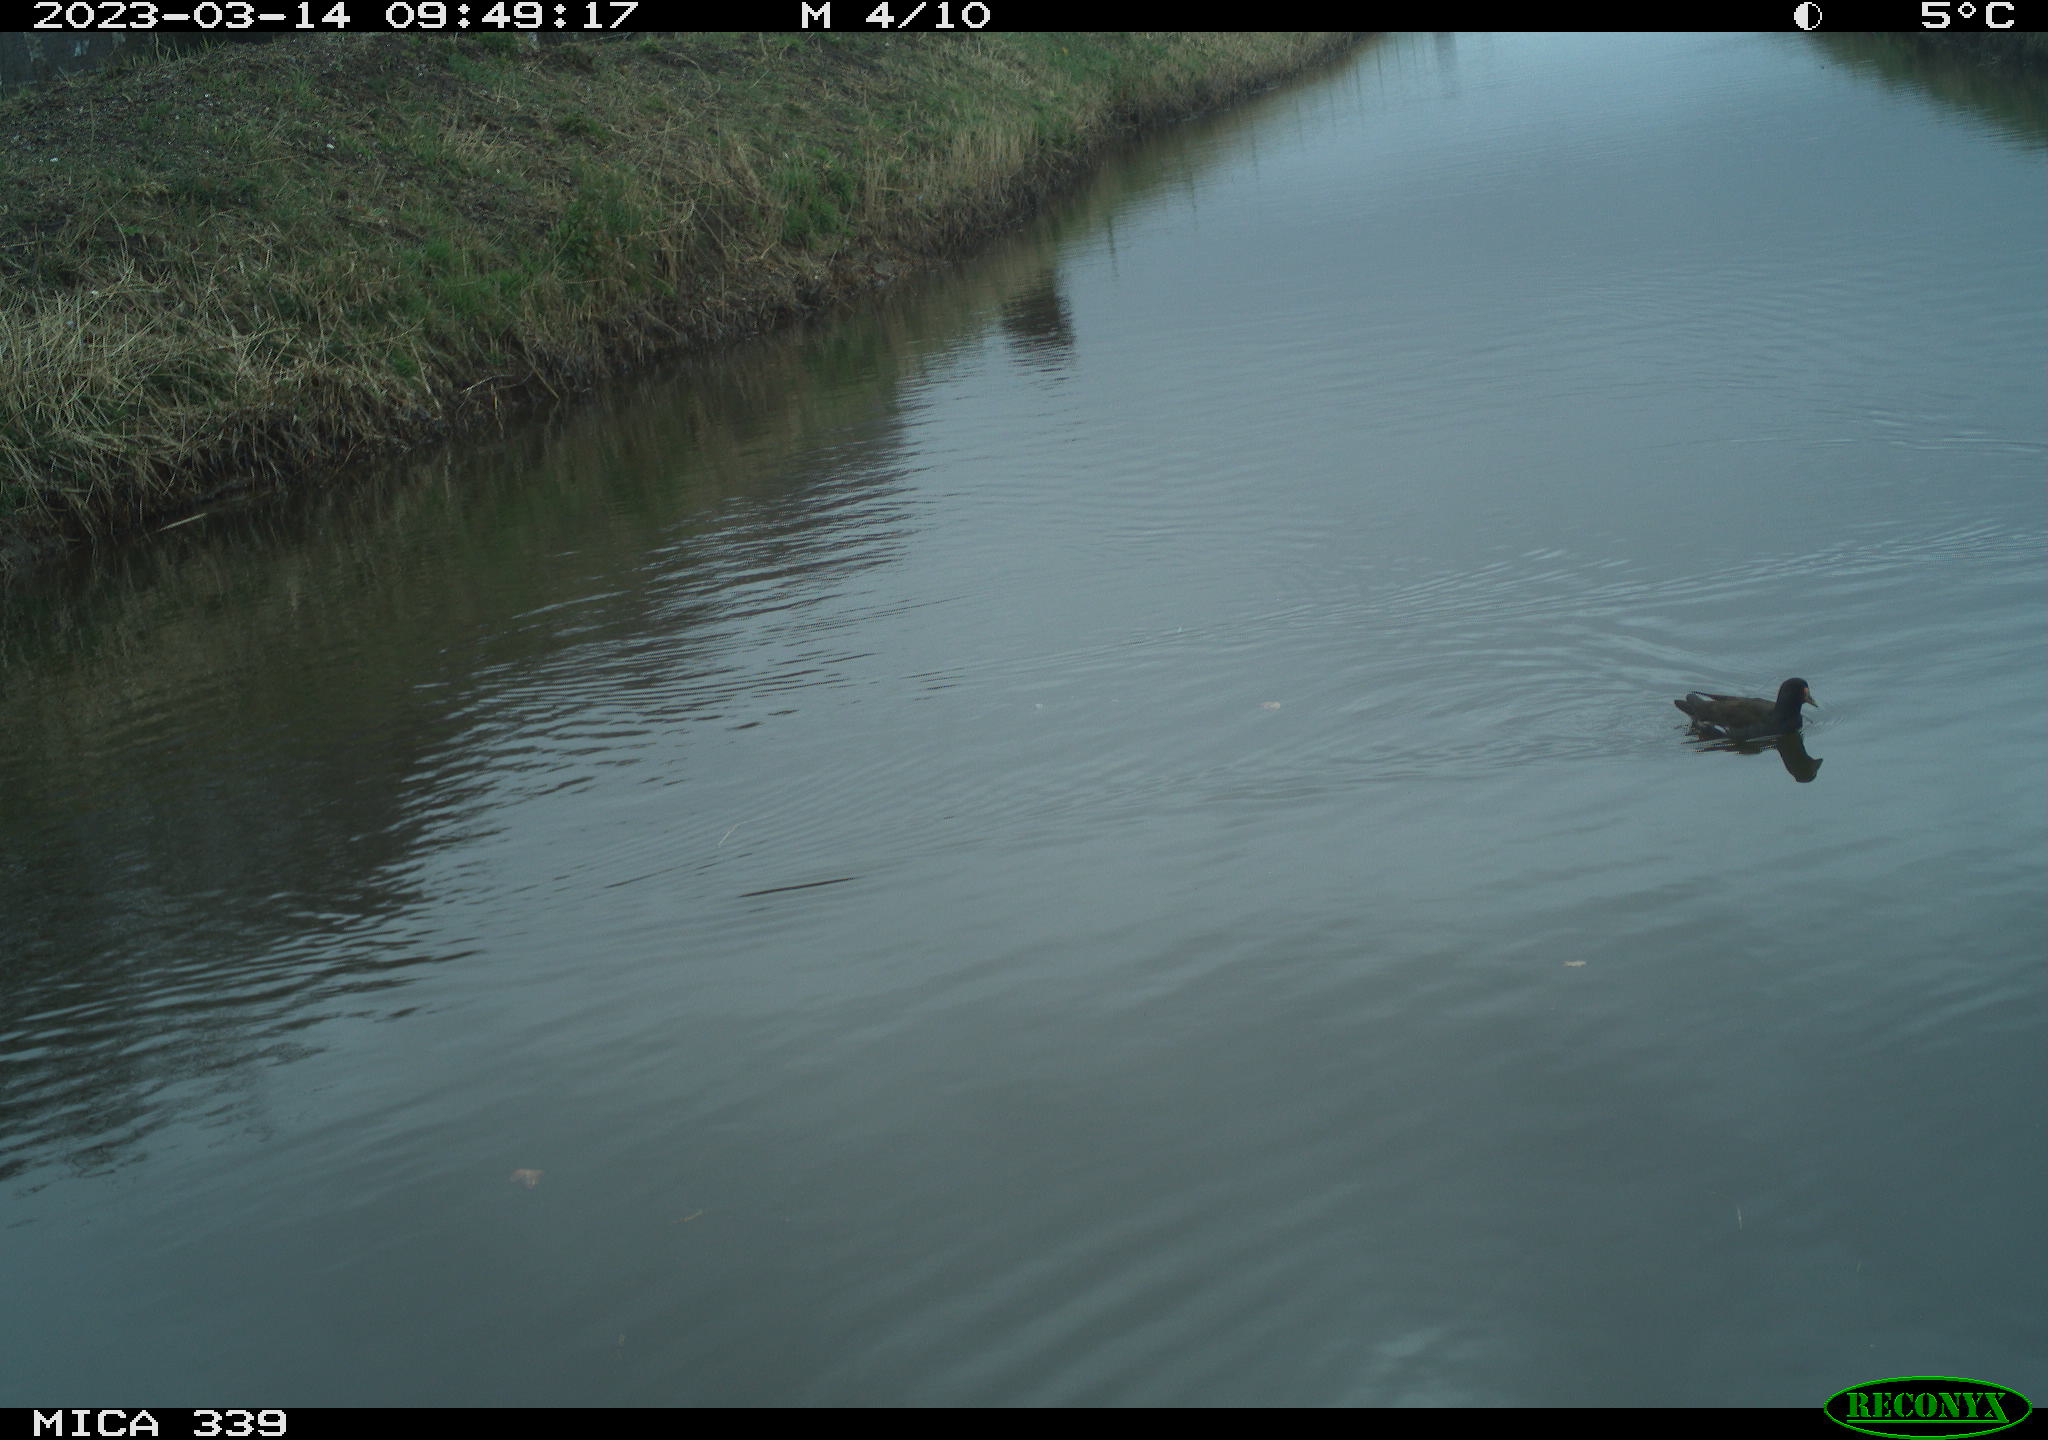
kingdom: Animalia
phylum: Chordata
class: Aves
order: Gruiformes
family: Rallidae
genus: Gallinula
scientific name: Gallinula chloropus
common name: Common moorhen
